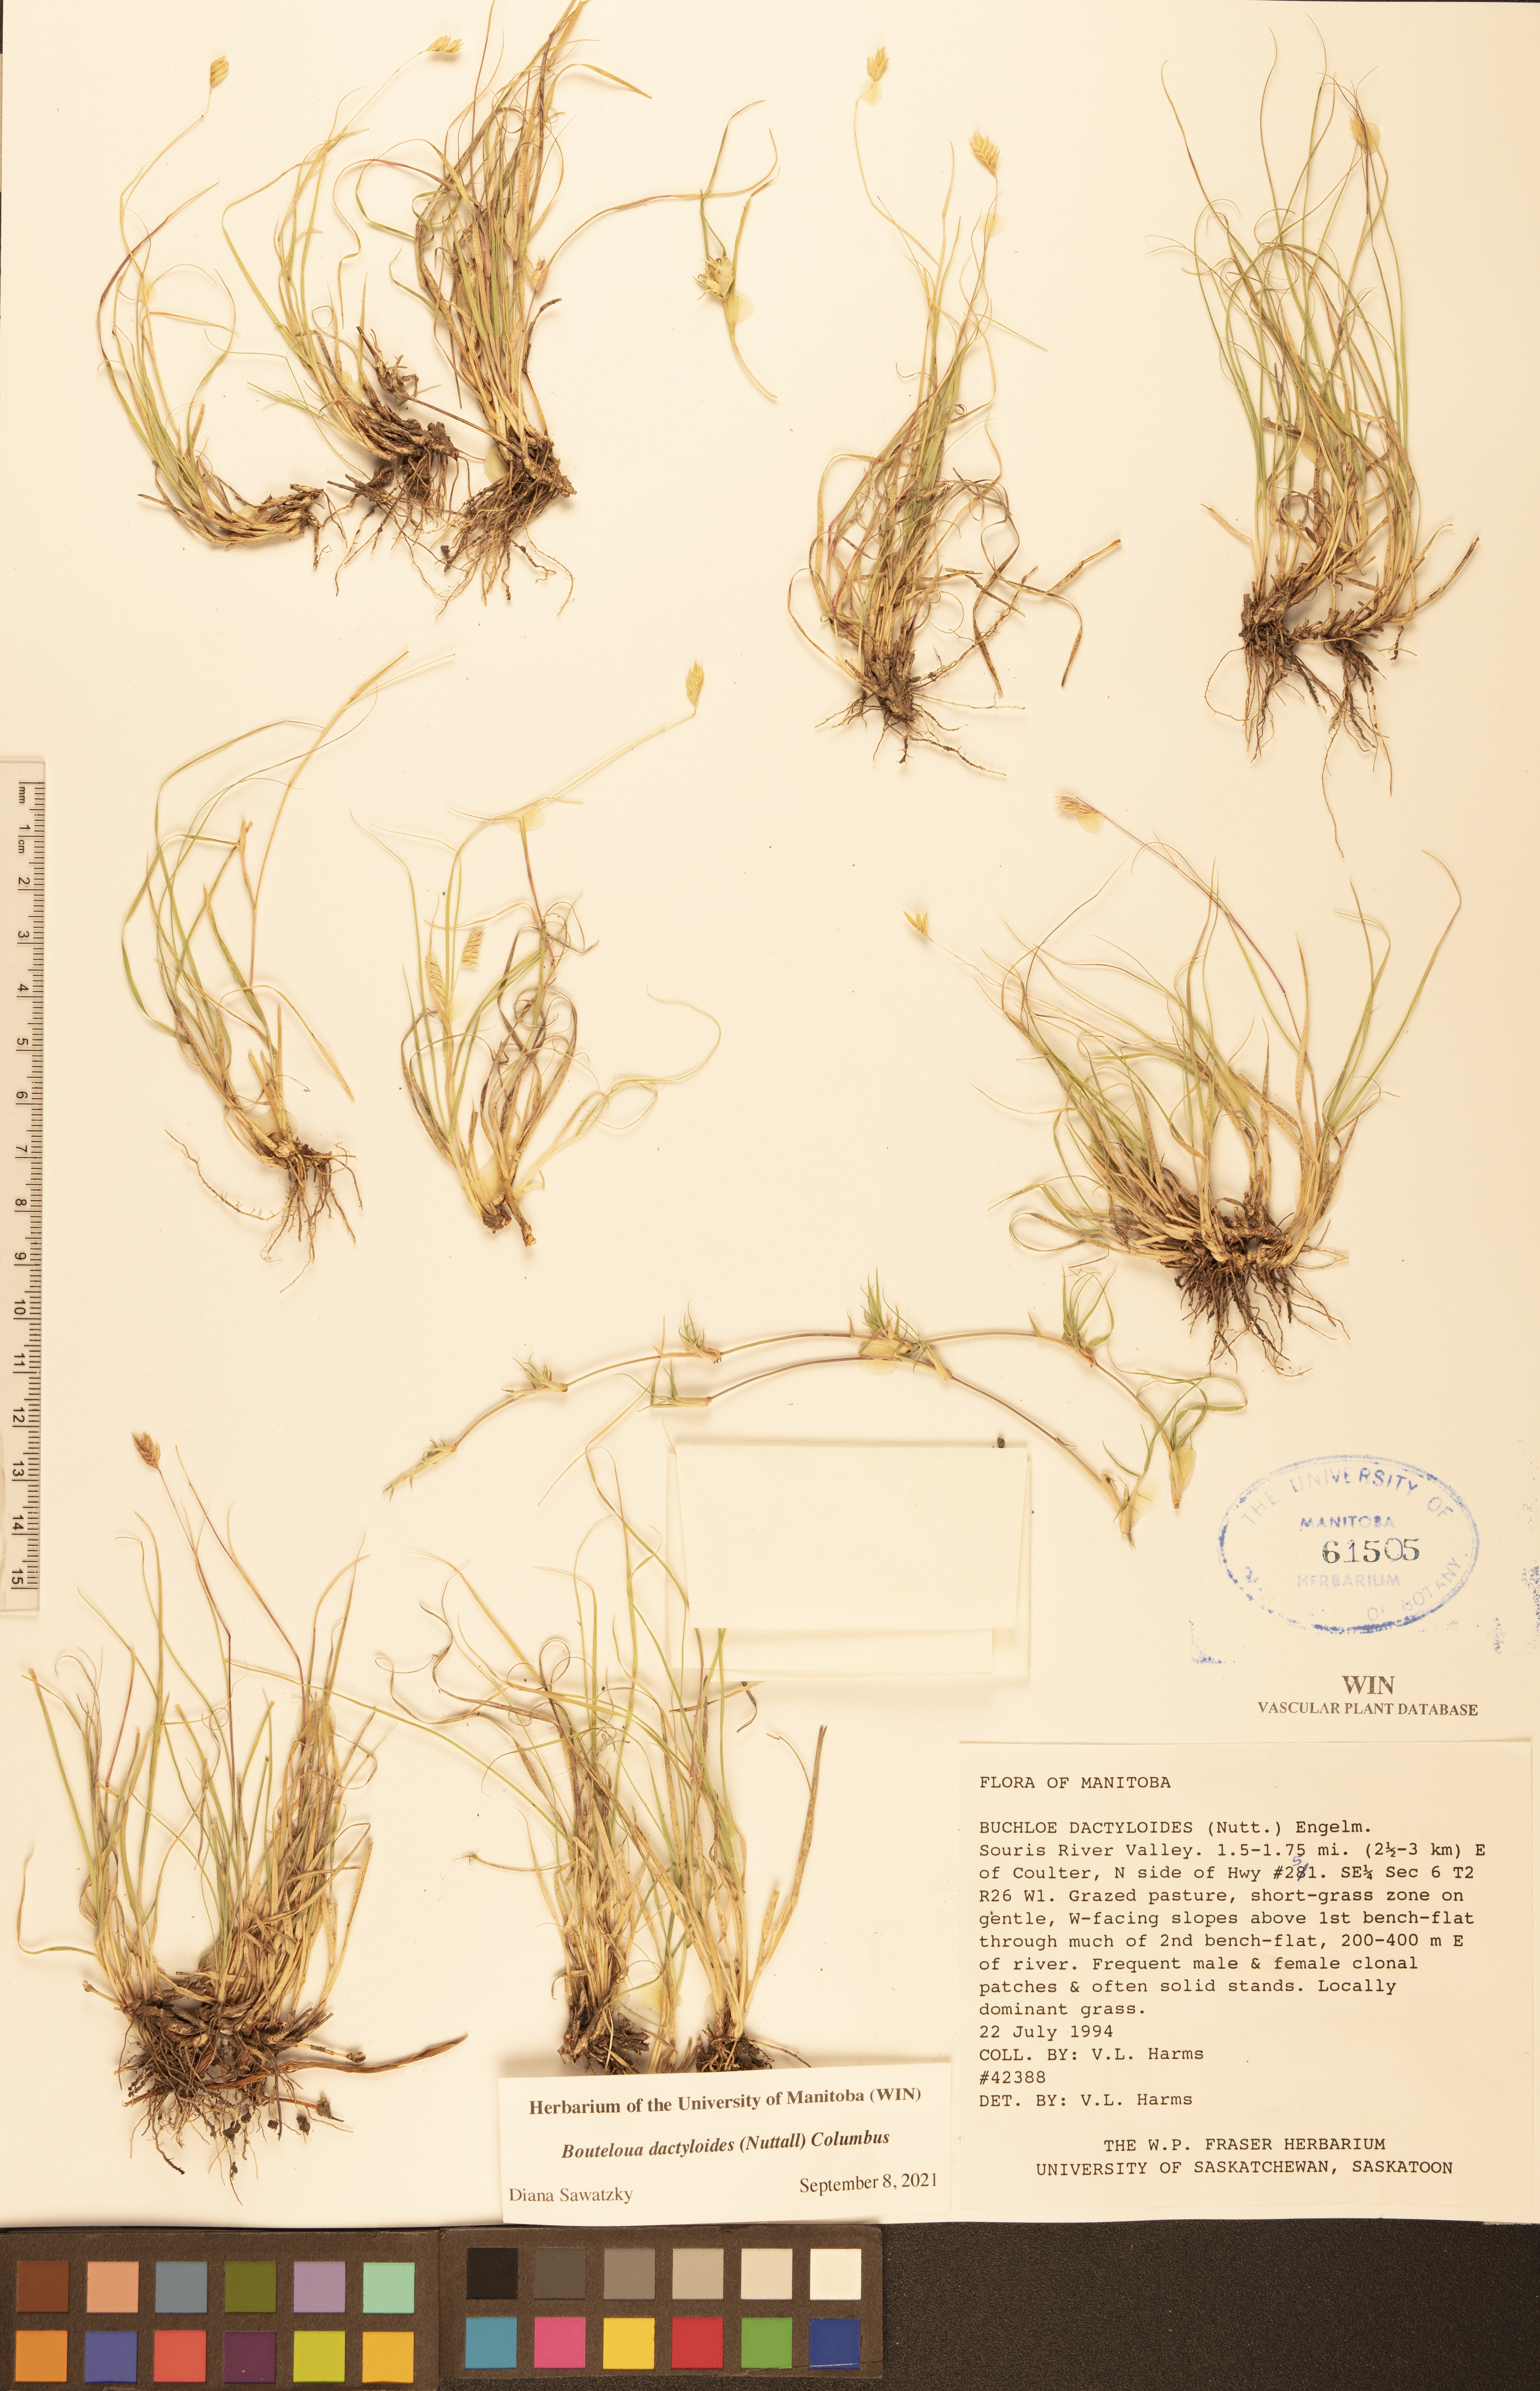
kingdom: Plantae
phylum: Tracheophyta
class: Liliopsida
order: Poales
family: Poaceae
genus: Bouteloua
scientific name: Bouteloua dactyloides
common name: Buffalo grass
